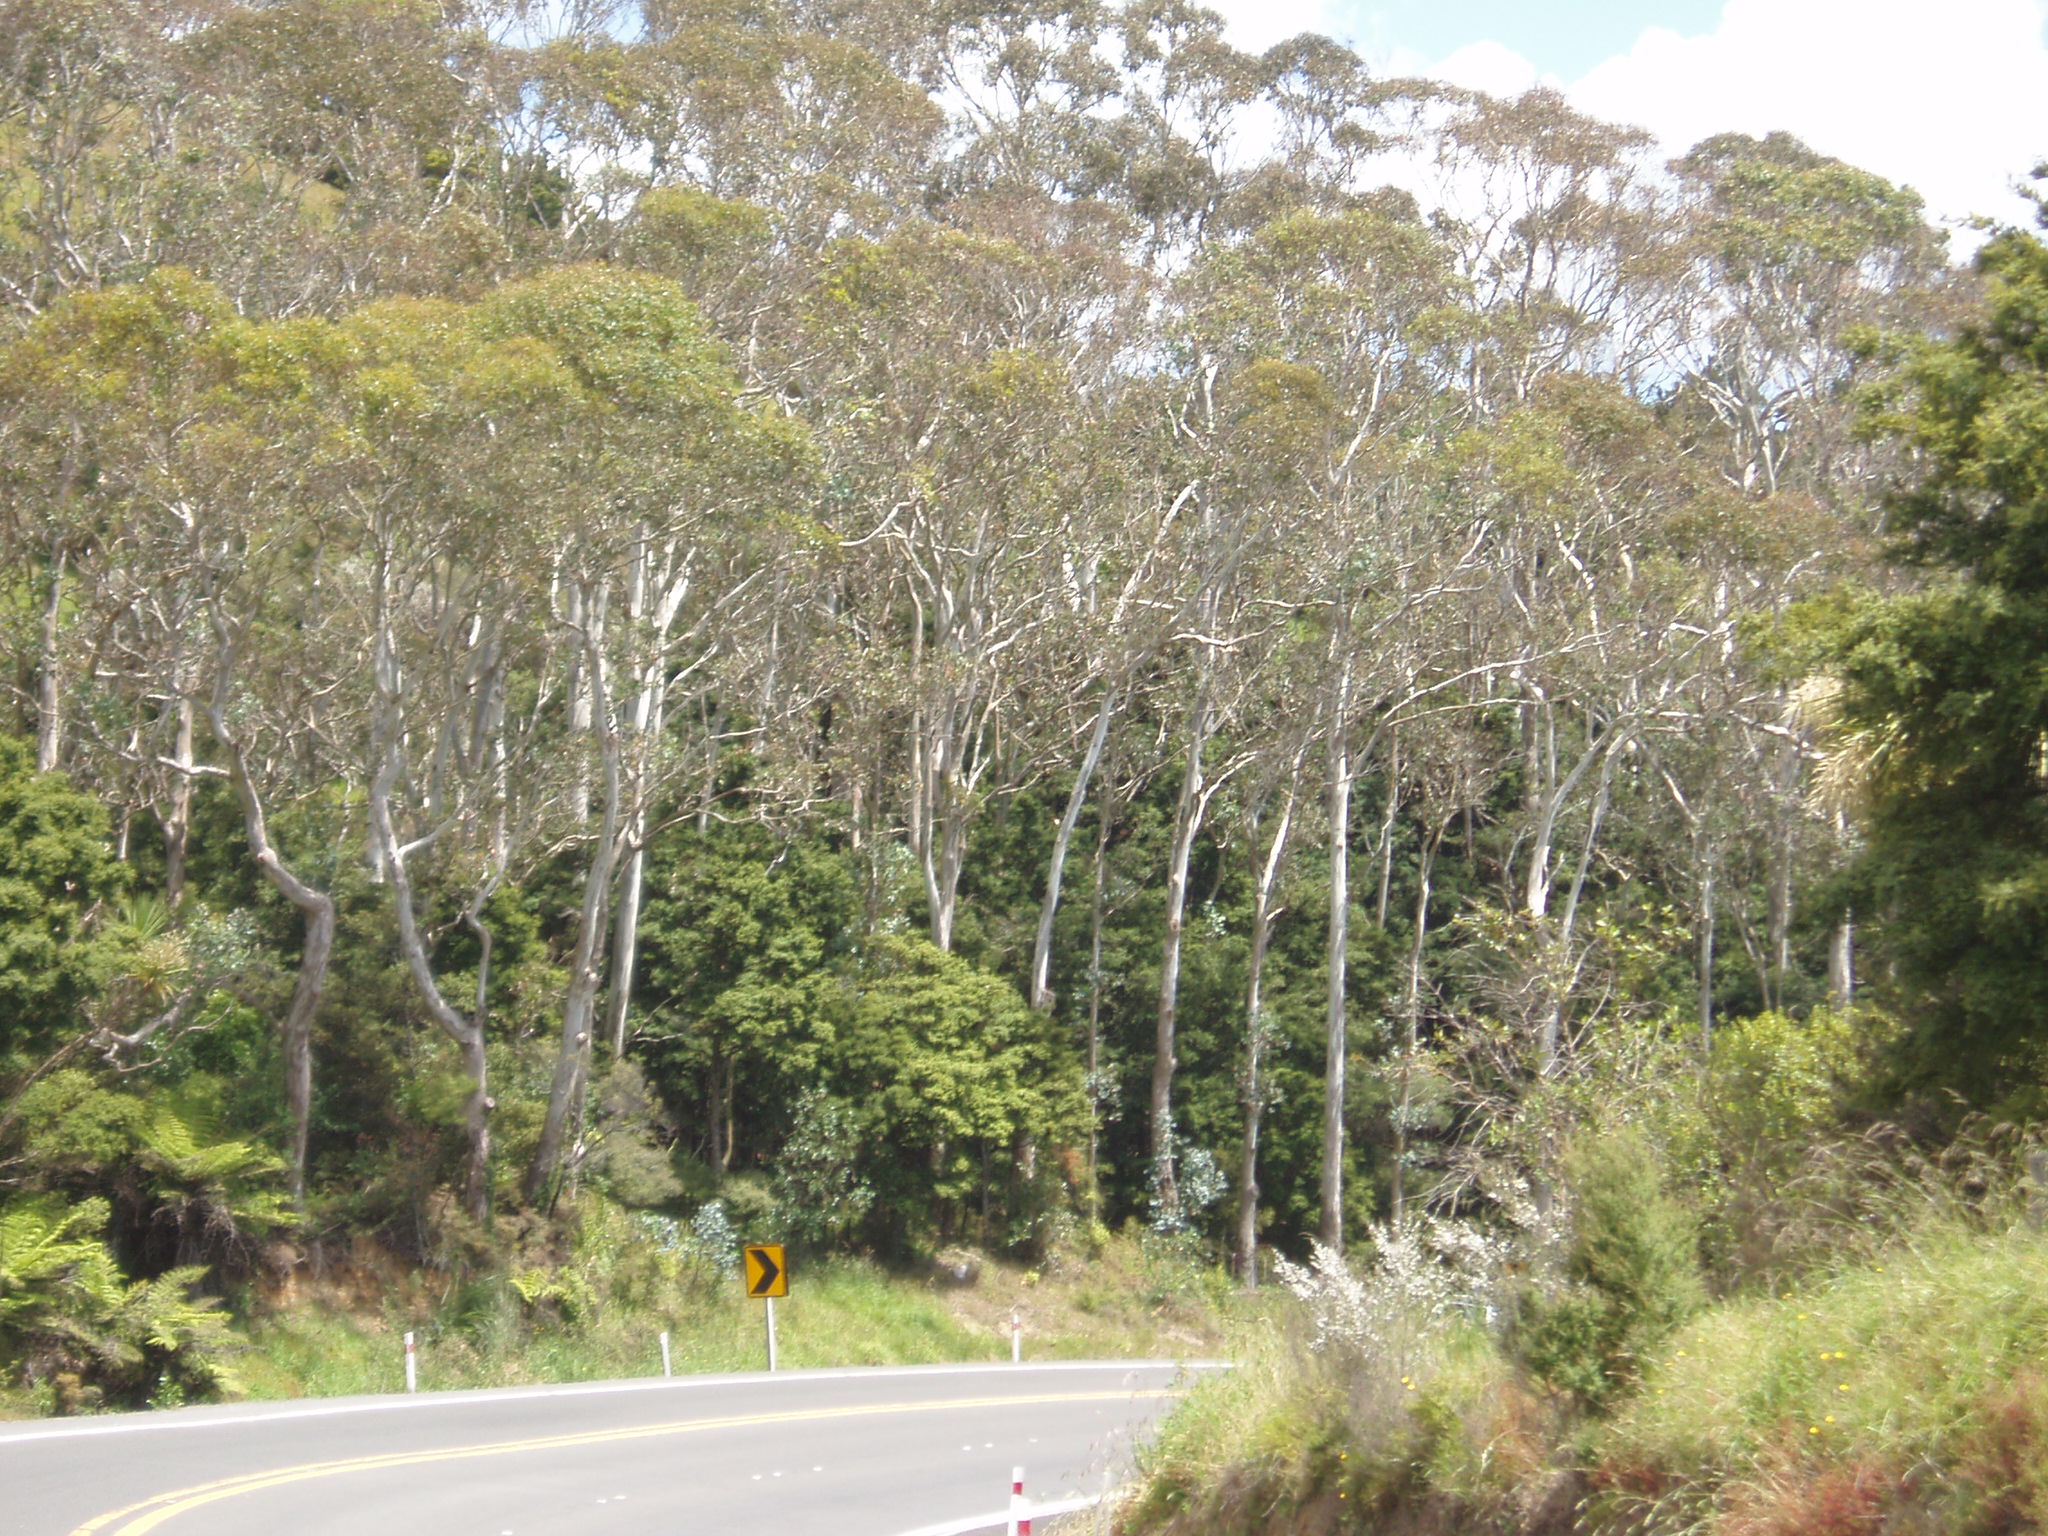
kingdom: Plantae
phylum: Tracheophyta
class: Magnoliopsida
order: Myrtales
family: Myrtaceae
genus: Eucalyptus
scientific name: Eucalyptus globulus
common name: Southern blue-gum
